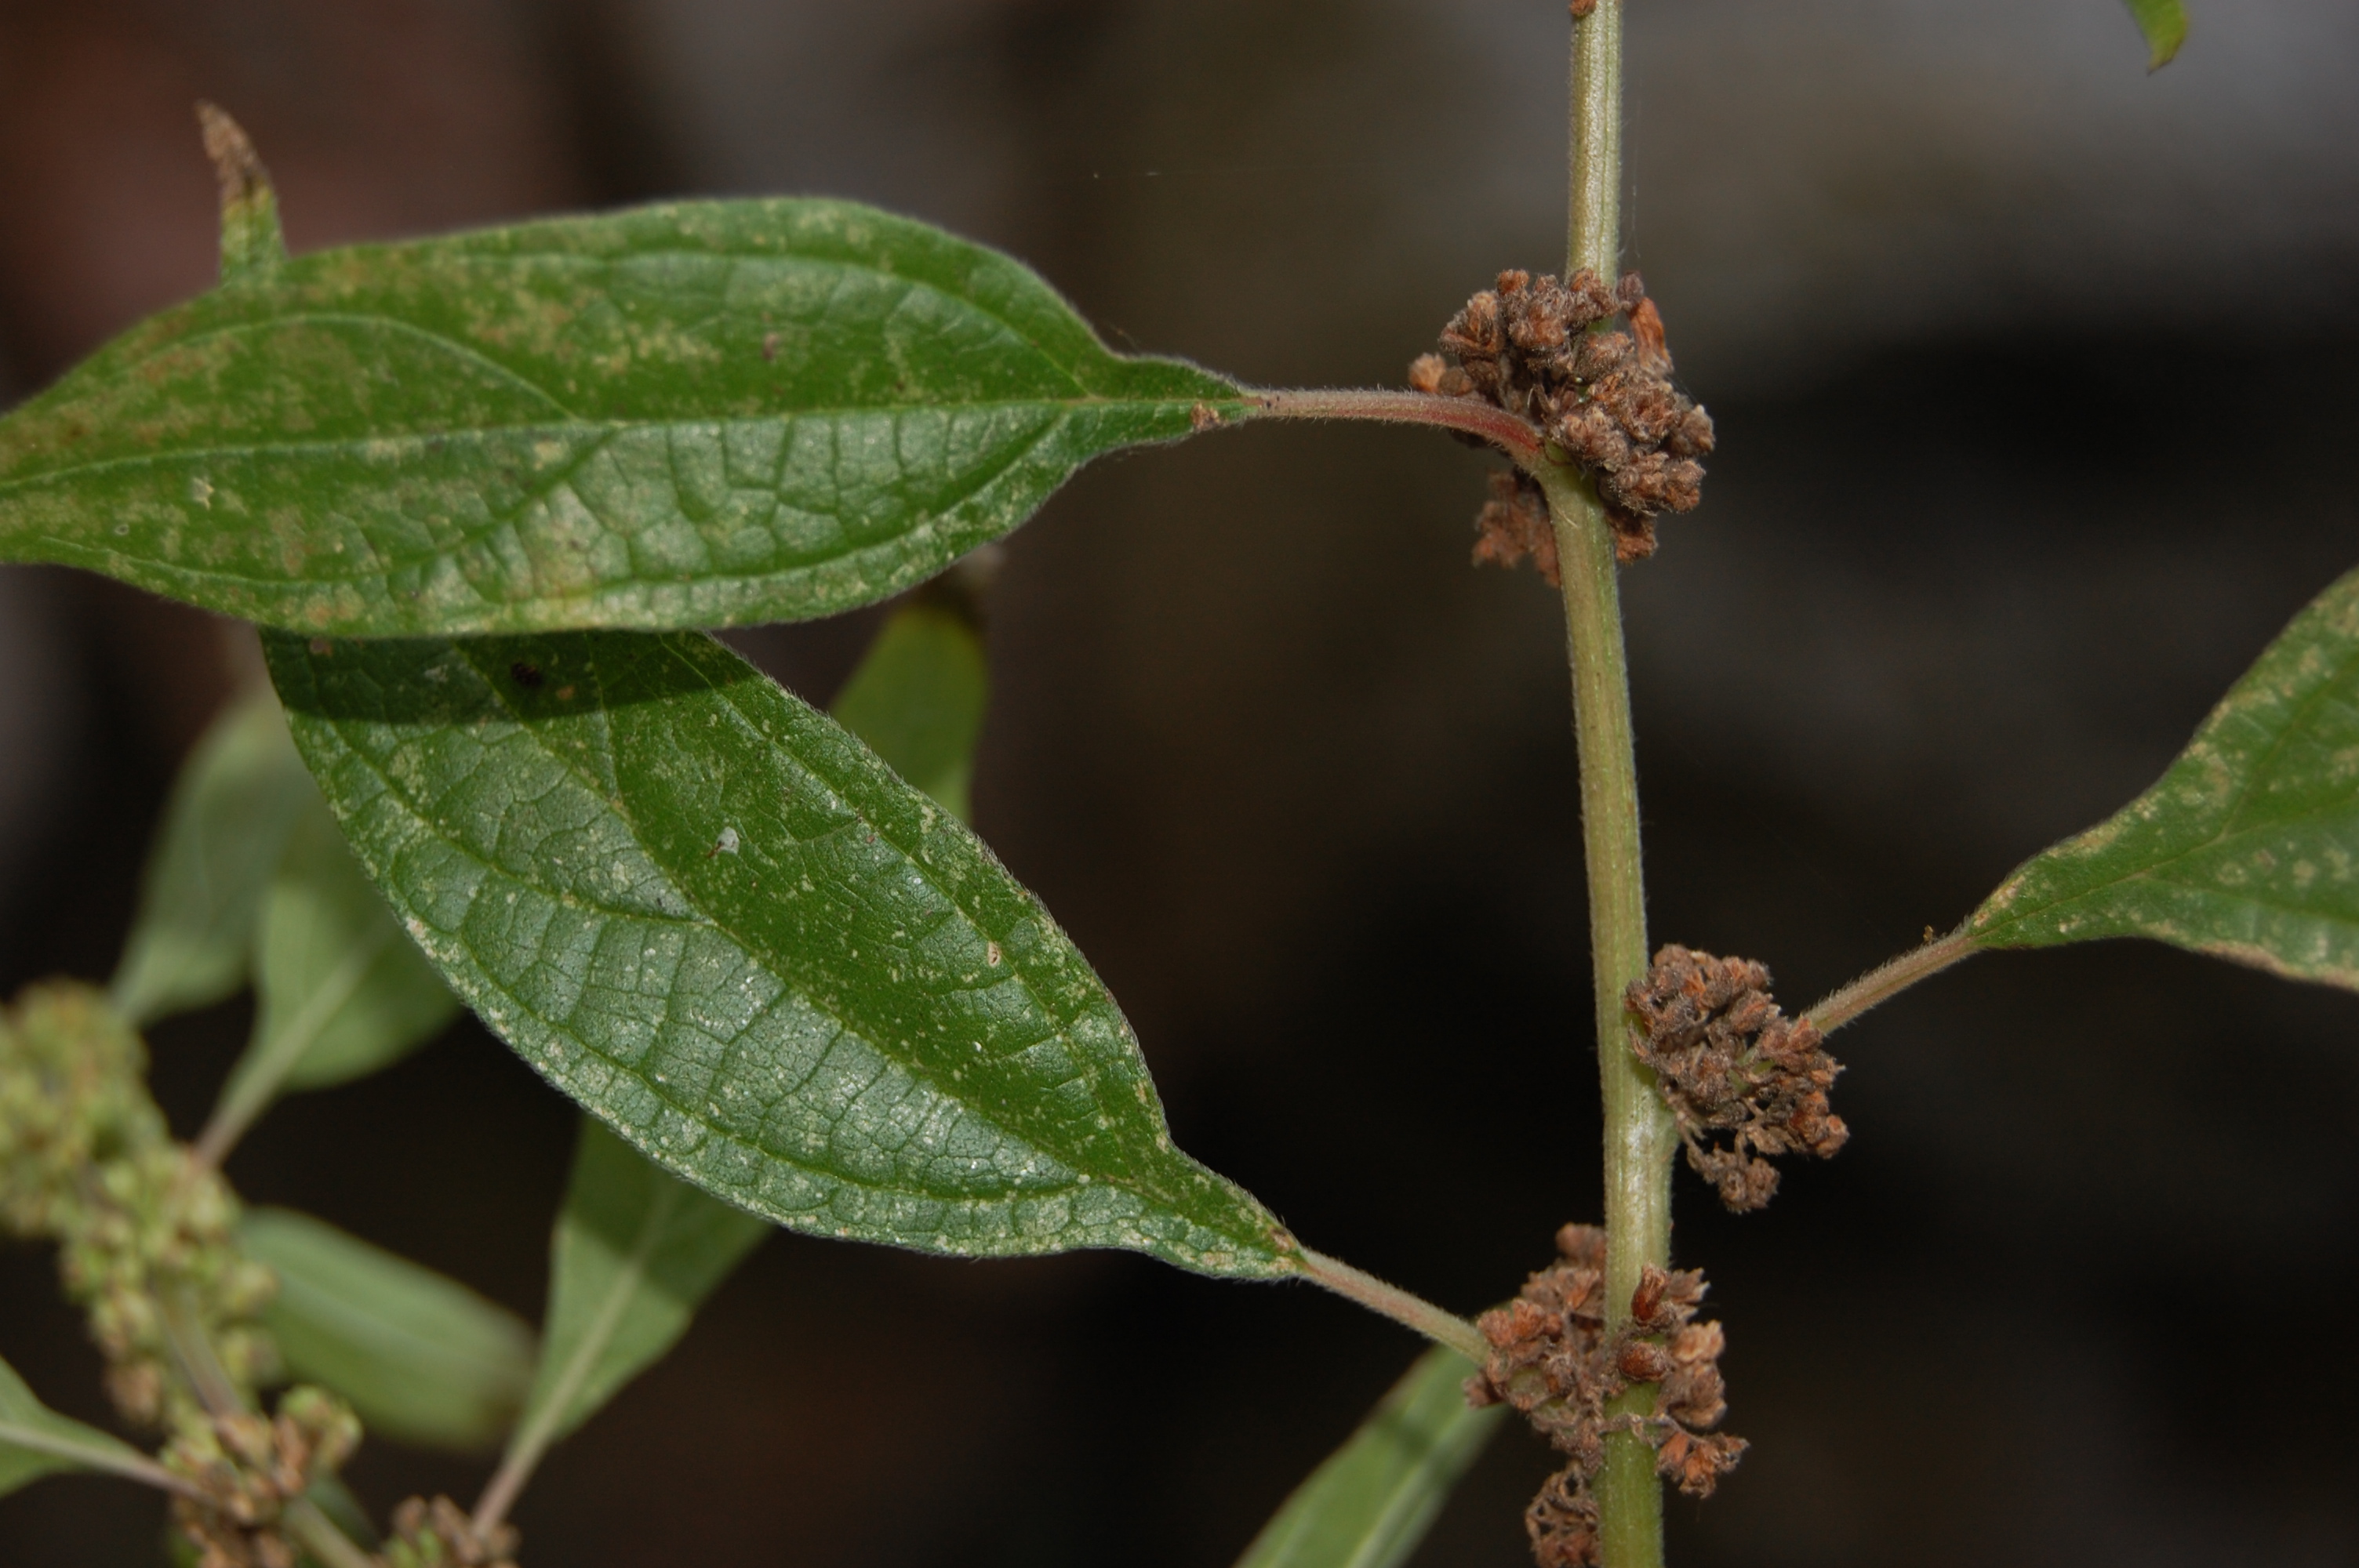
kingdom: Plantae
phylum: Tracheophyta
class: Magnoliopsida
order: Rosales
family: Urticaceae
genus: Parietaria
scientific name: Parietaria officinalis
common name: Eastern pellitory-of-the-wall
